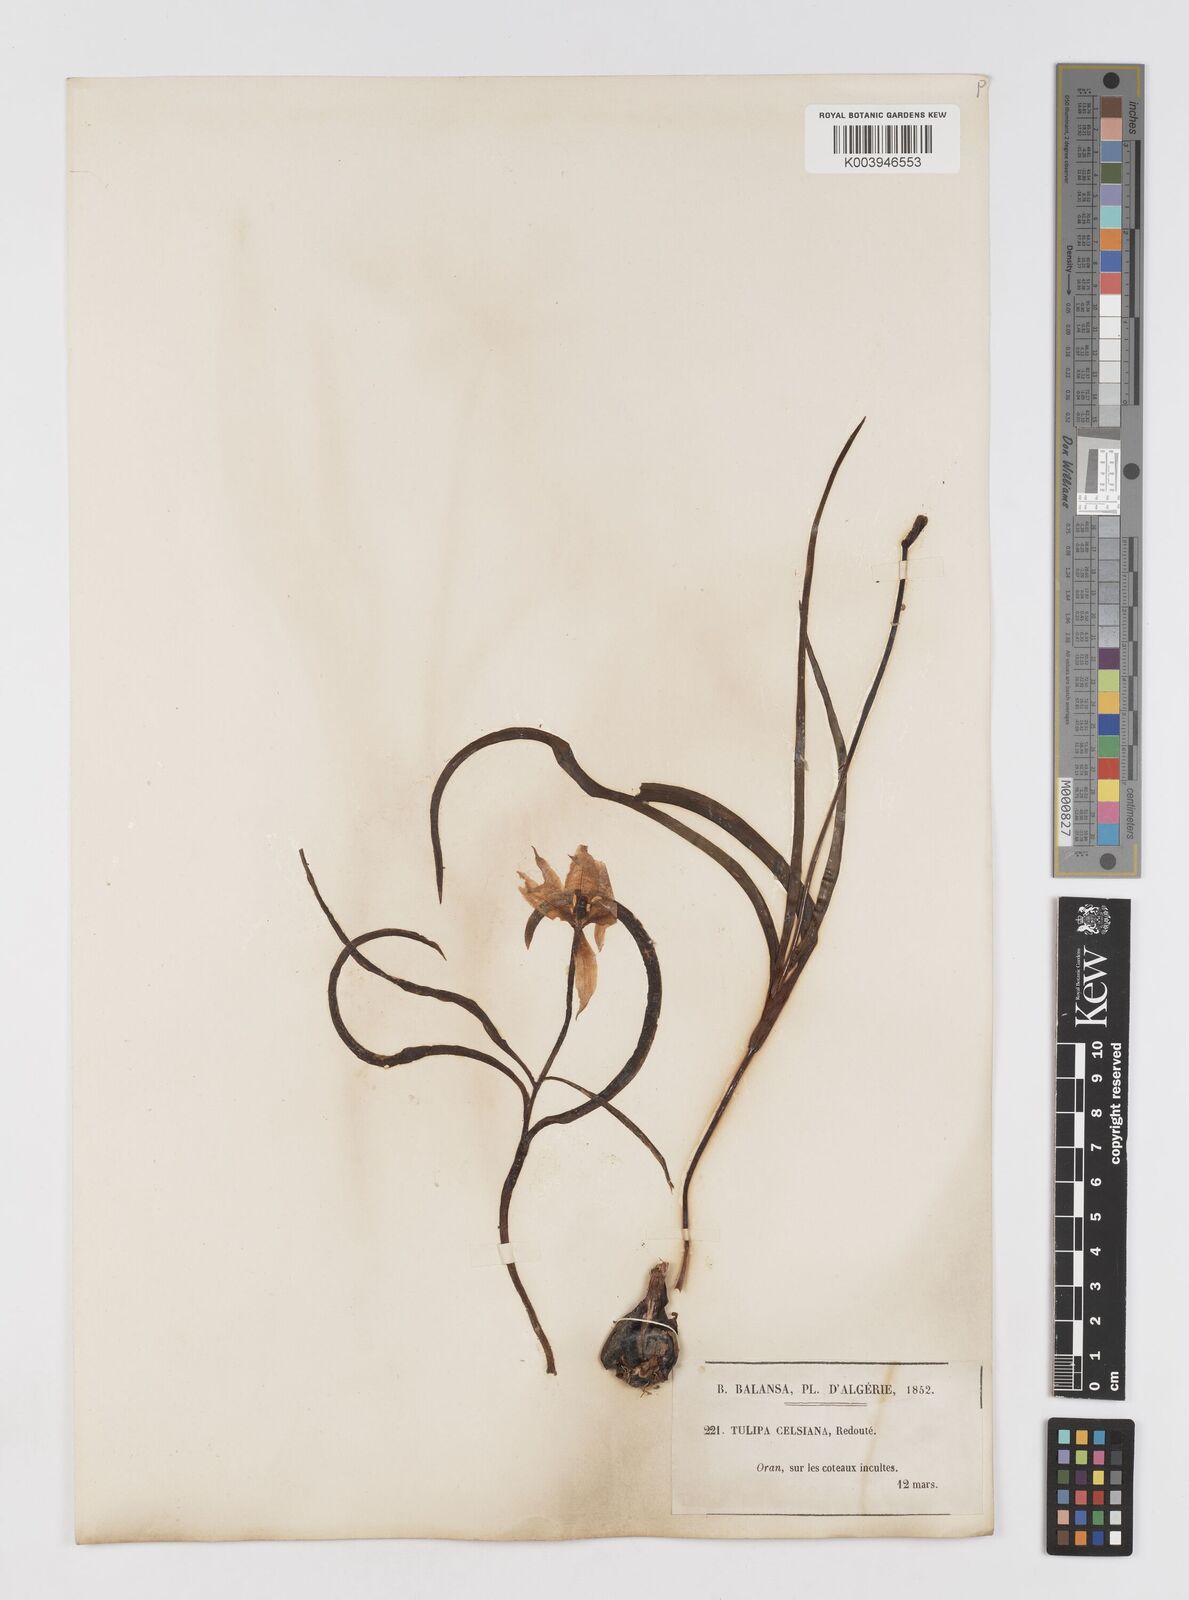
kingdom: Plantae
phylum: Tracheophyta
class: Liliopsida
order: Liliales
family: Liliaceae
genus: Tulipa
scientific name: Tulipa sylvestris
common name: Wild tulip
